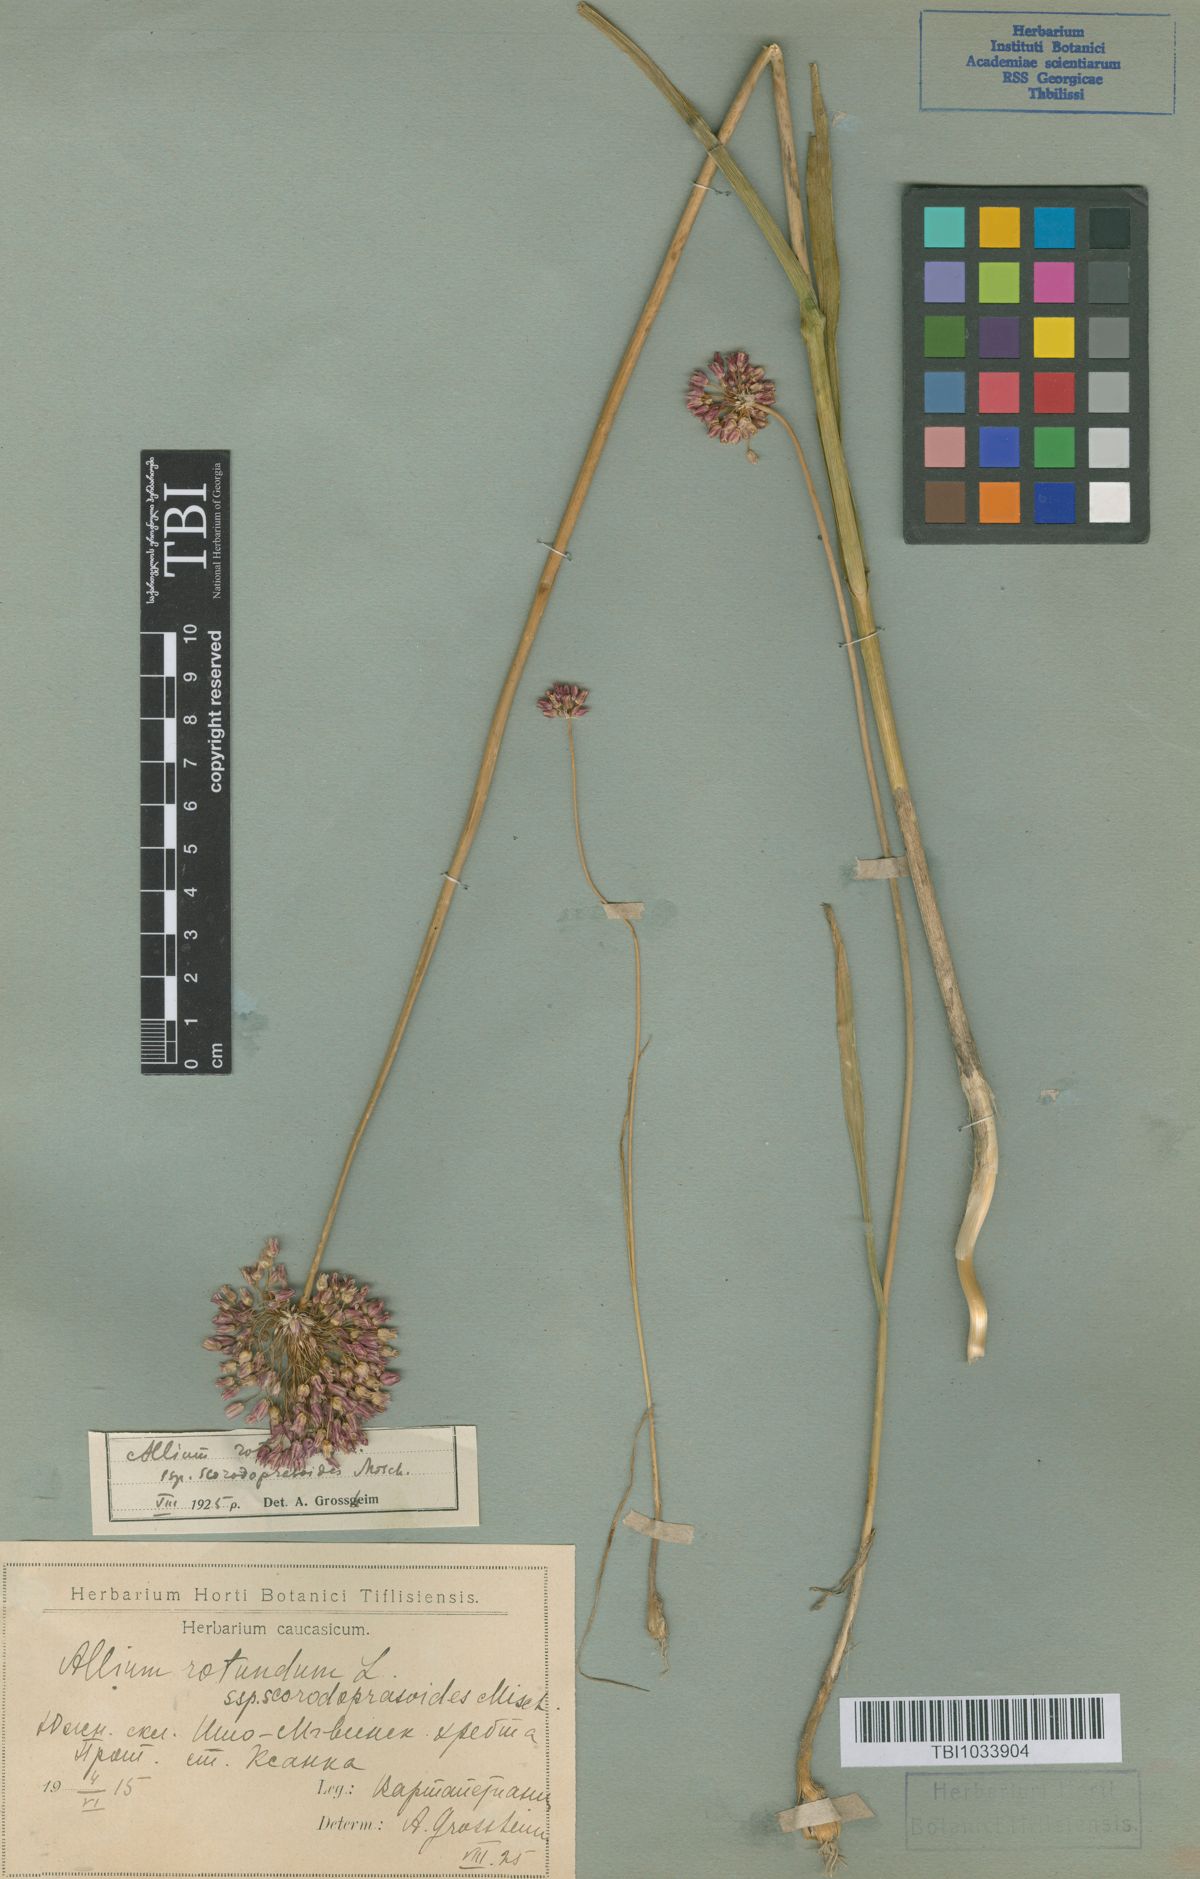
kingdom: Plantae
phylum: Tracheophyta
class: Liliopsida
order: Asparagales
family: Amaryllidaceae
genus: Allium
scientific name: Allium rotundum
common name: Sand leek
